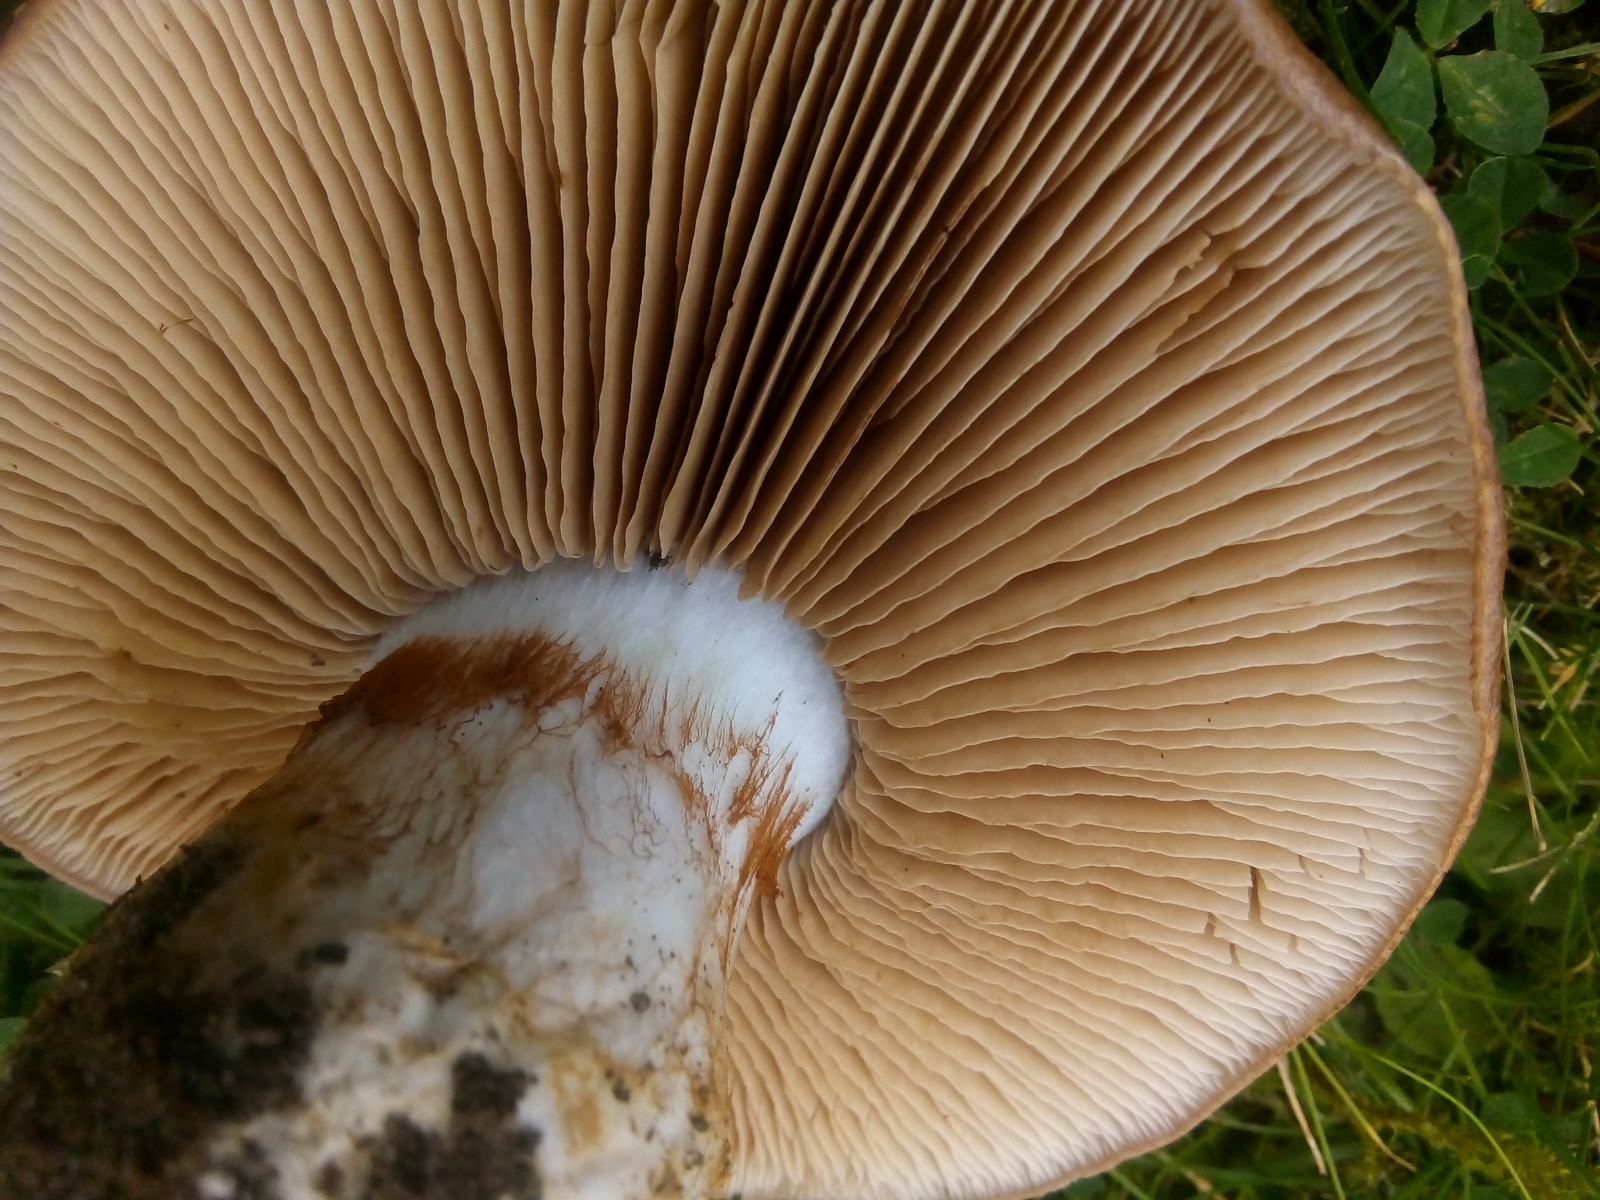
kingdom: Fungi
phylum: Basidiomycota
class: Agaricomycetes
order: Agaricales
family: Cortinariaceae
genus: Phlegmacium
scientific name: Phlegmacium balteatocumatile
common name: violettrådet slørhat
